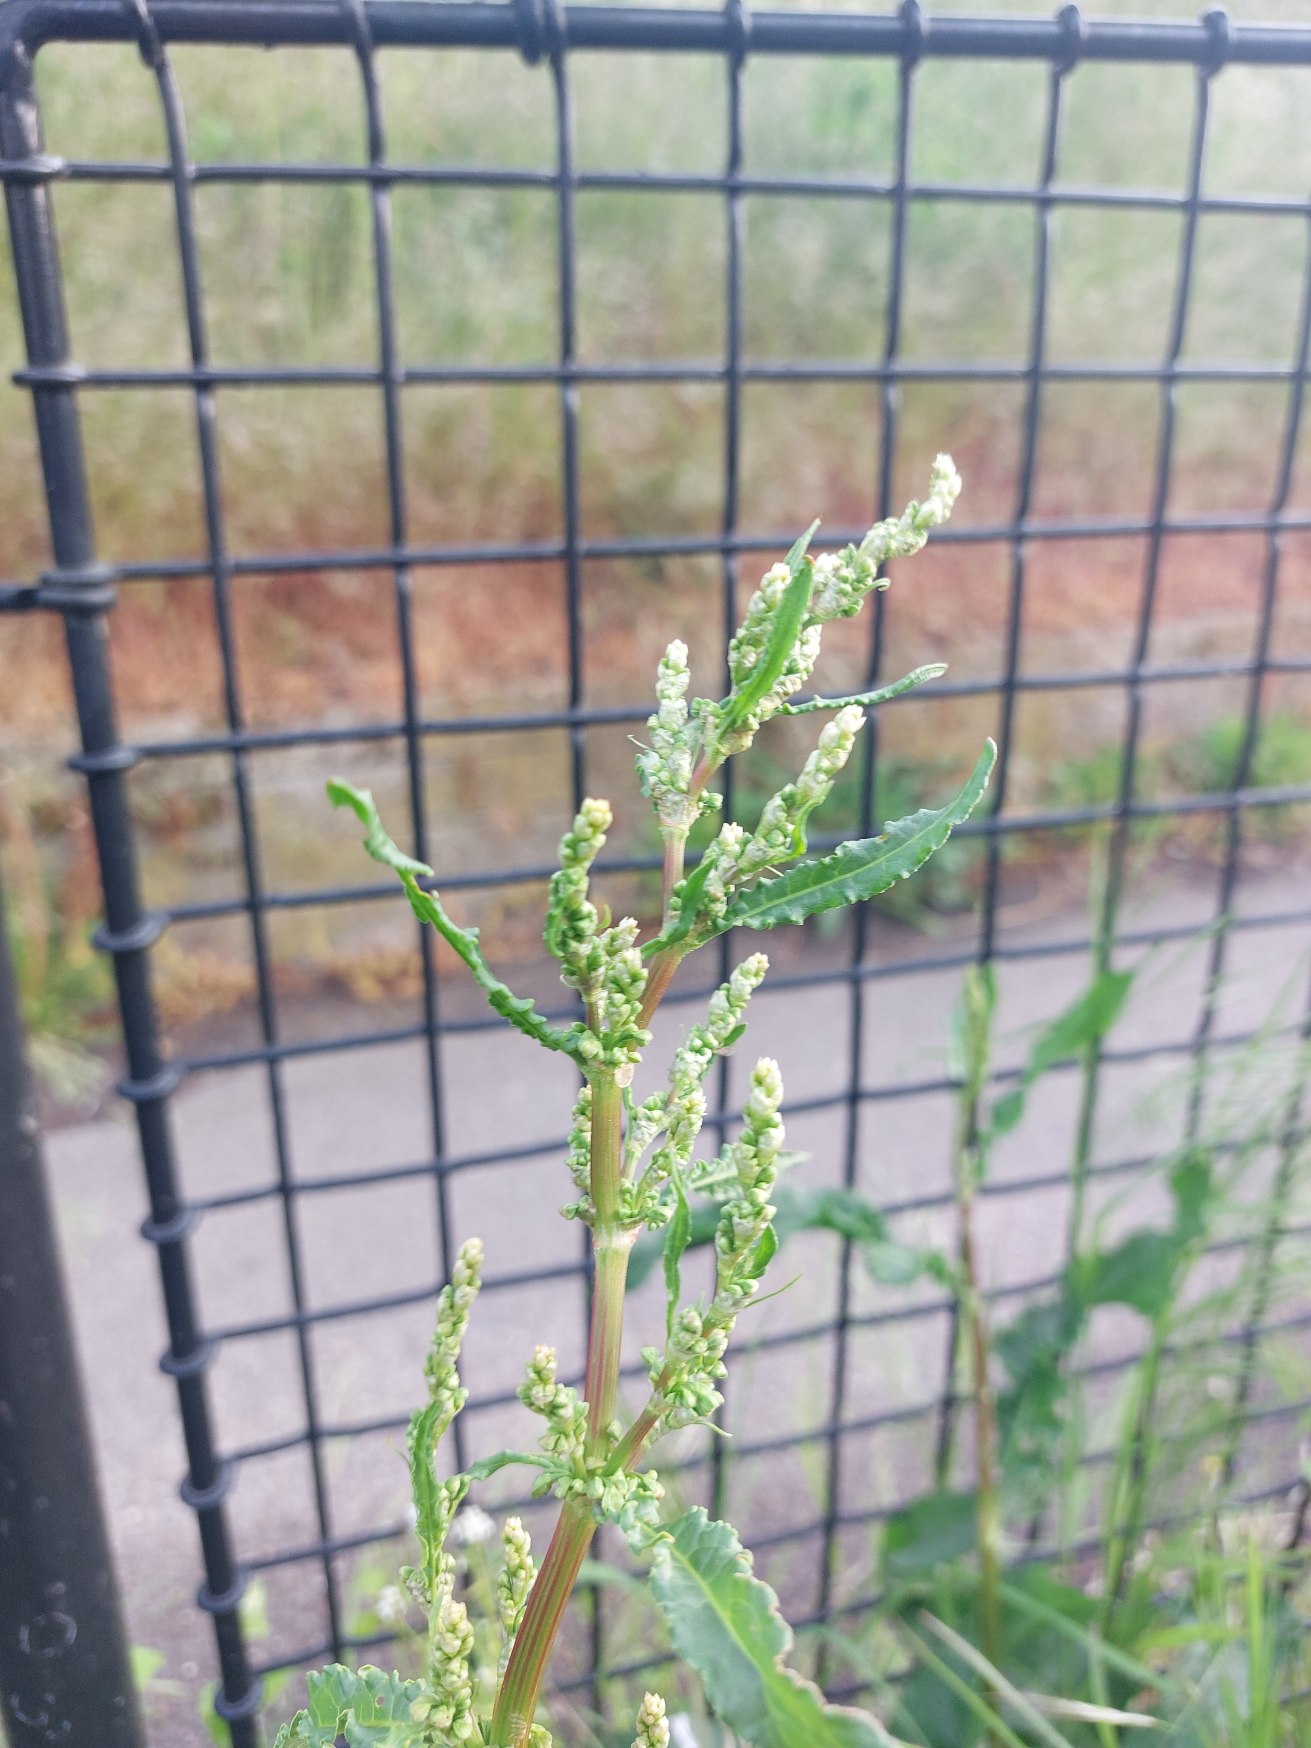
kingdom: Plantae
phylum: Tracheophyta
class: Magnoliopsida
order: Caryophyllales
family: Polygonaceae
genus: Rumex
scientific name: Rumex crispus
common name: Kruset skræppe
